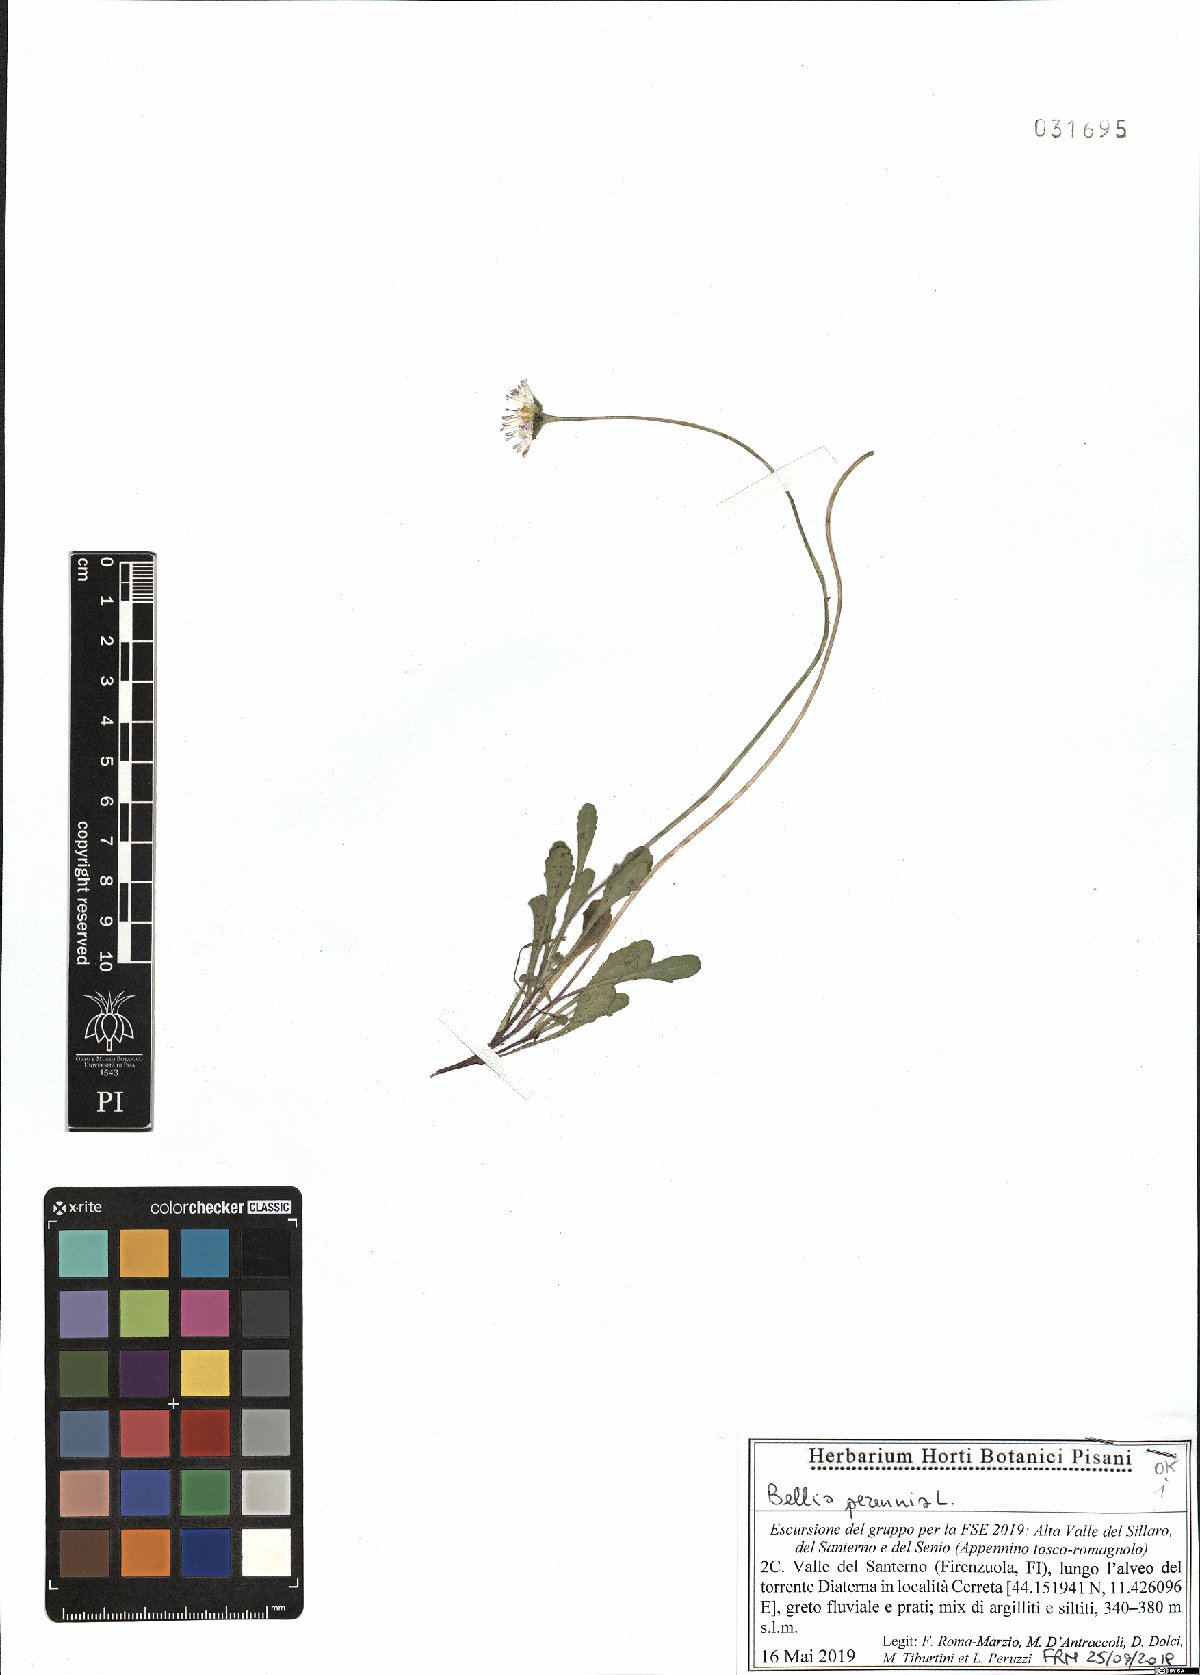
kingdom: Plantae
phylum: Tracheophyta
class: Magnoliopsida
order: Asterales
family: Asteraceae
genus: Bellis
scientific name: Bellis perennis
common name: Lawndaisy
